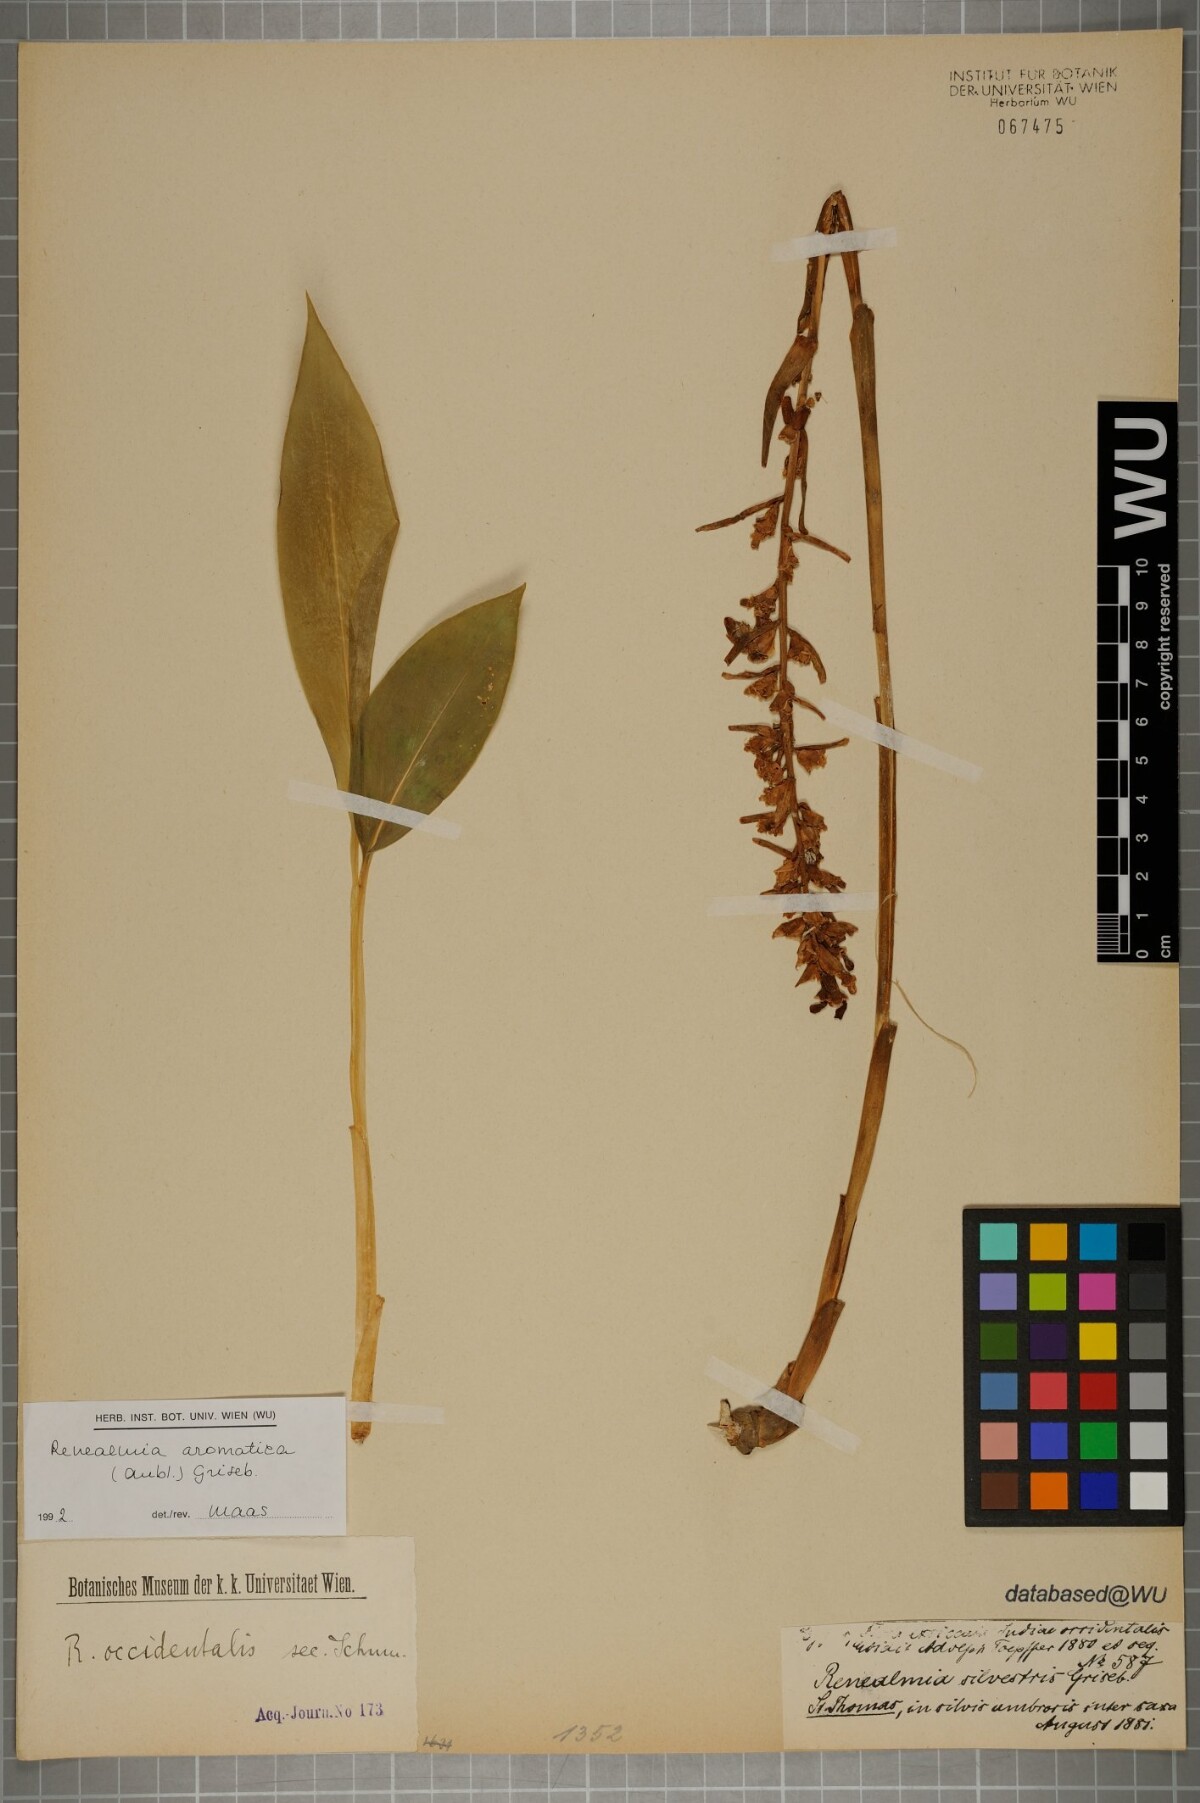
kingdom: Plantae
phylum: Tracheophyta
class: Liliopsida
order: Zingiberales
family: Zingiberaceae
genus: Renealmia
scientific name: Renealmia aromatica
